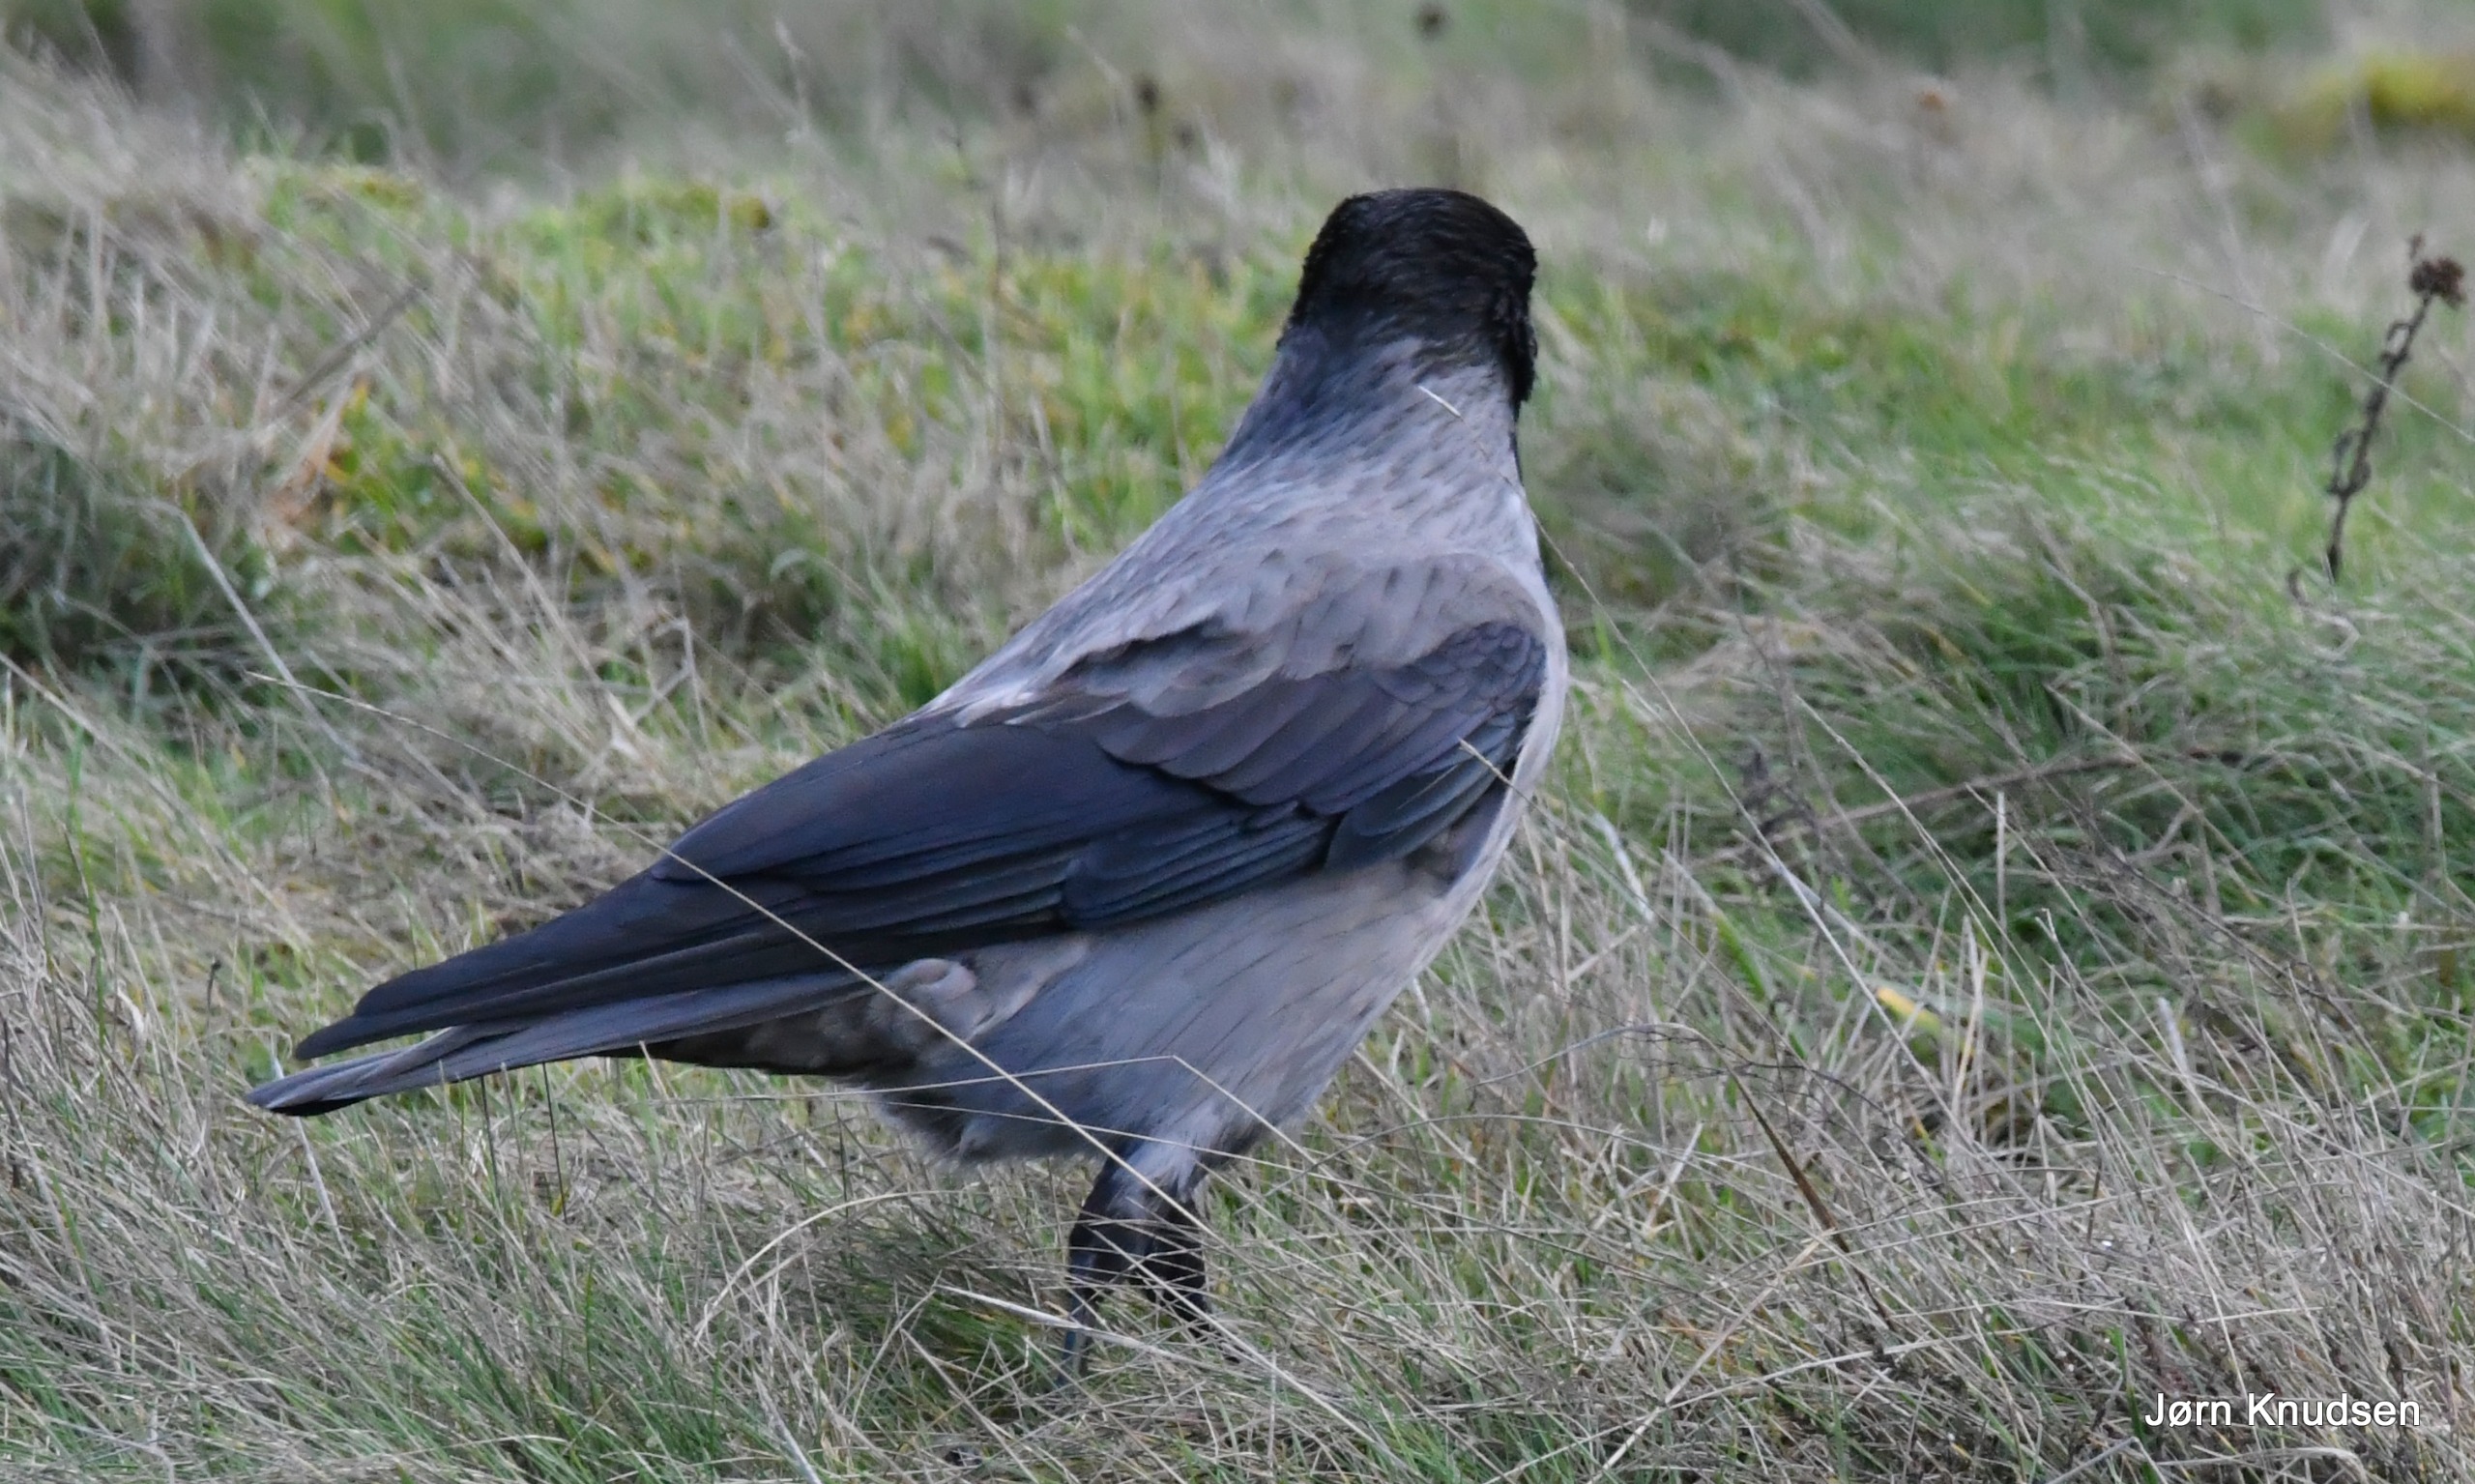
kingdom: Animalia
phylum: Chordata
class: Aves
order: Passeriformes
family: Corvidae
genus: Corvus
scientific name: Corvus cornix
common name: Gråkrage
